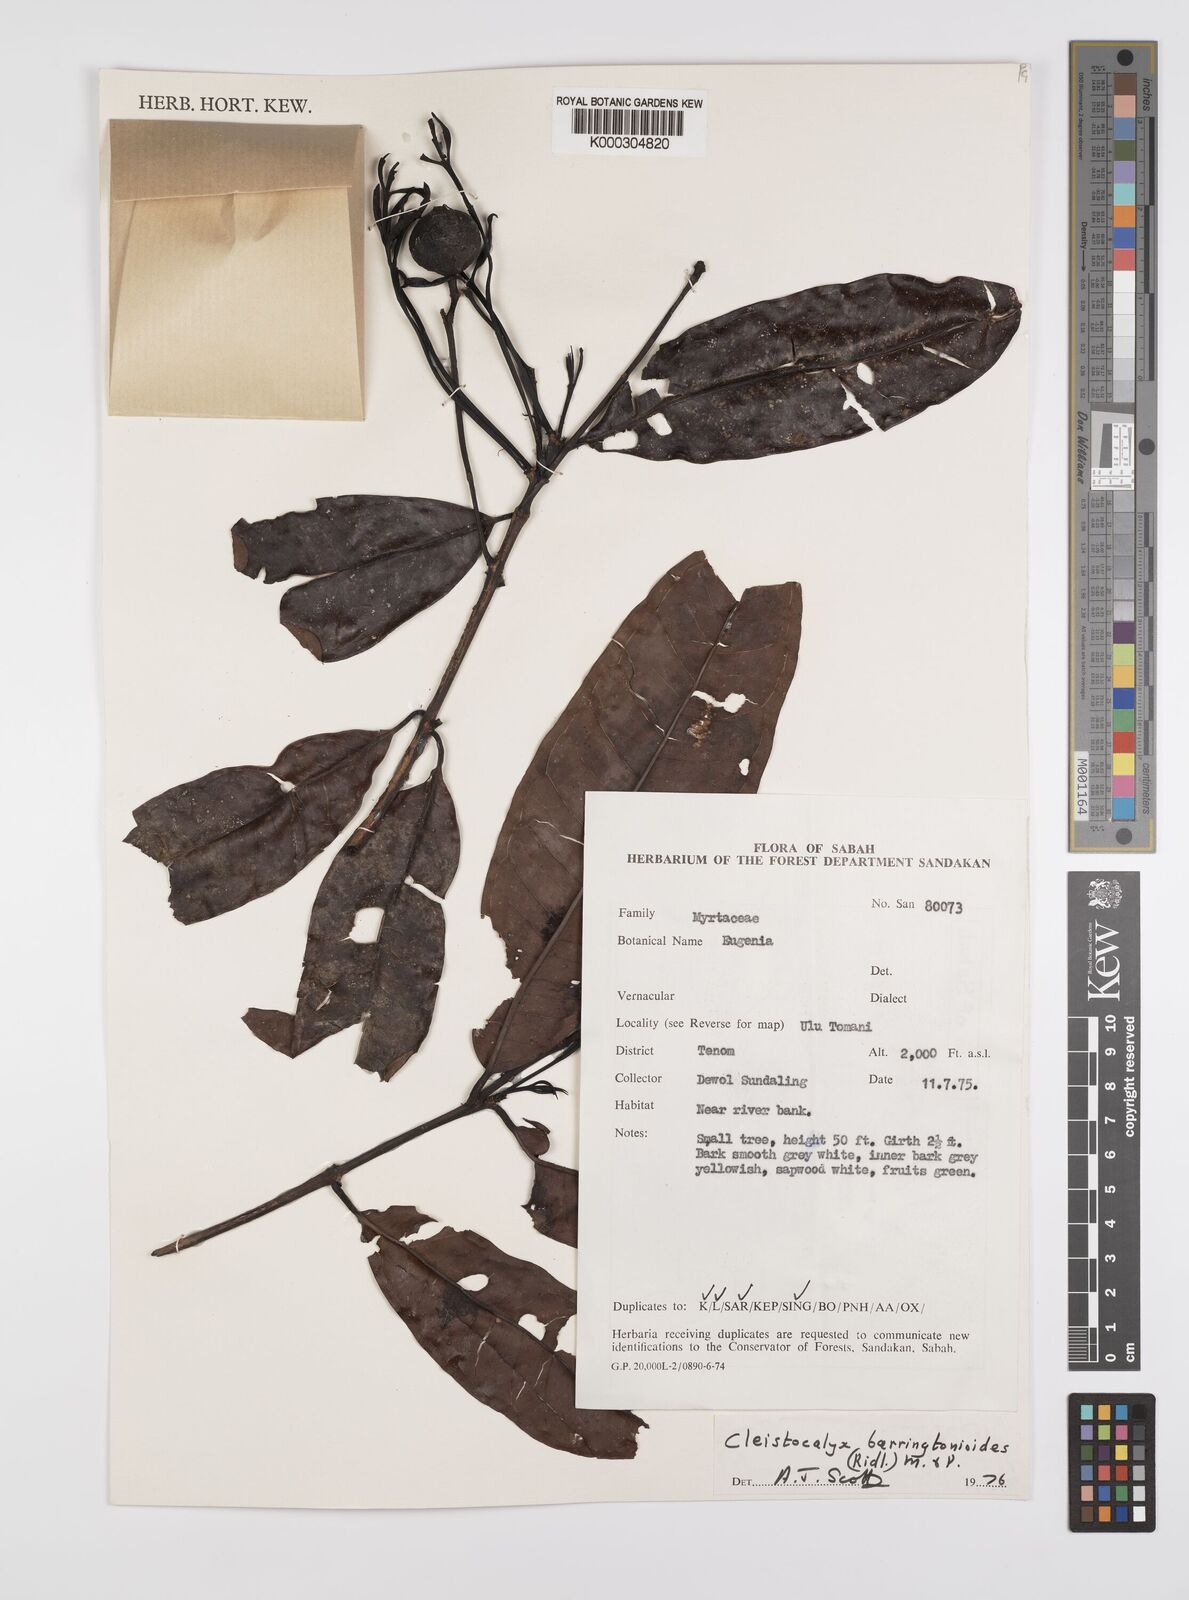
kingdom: Plantae
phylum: Tracheophyta
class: Magnoliopsida
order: Myrtales
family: Myrtaceae
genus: Syzygium
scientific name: Syzygium barringtonioides
